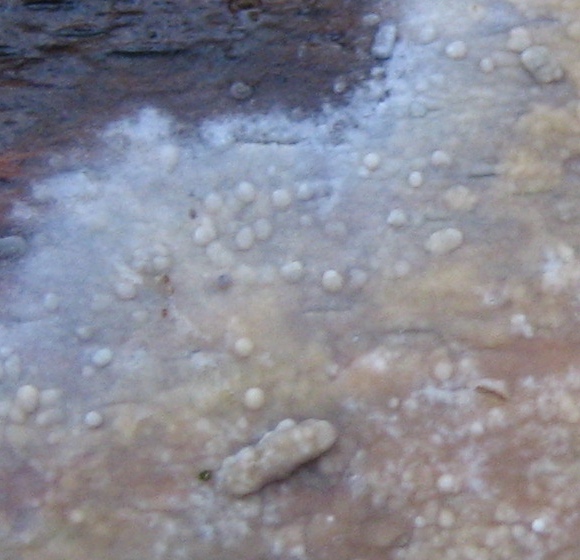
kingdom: Fungi
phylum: Basidiomycota
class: Agaricomycetes
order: Corticiales
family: Corticiaceae
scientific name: Corticiaceae
